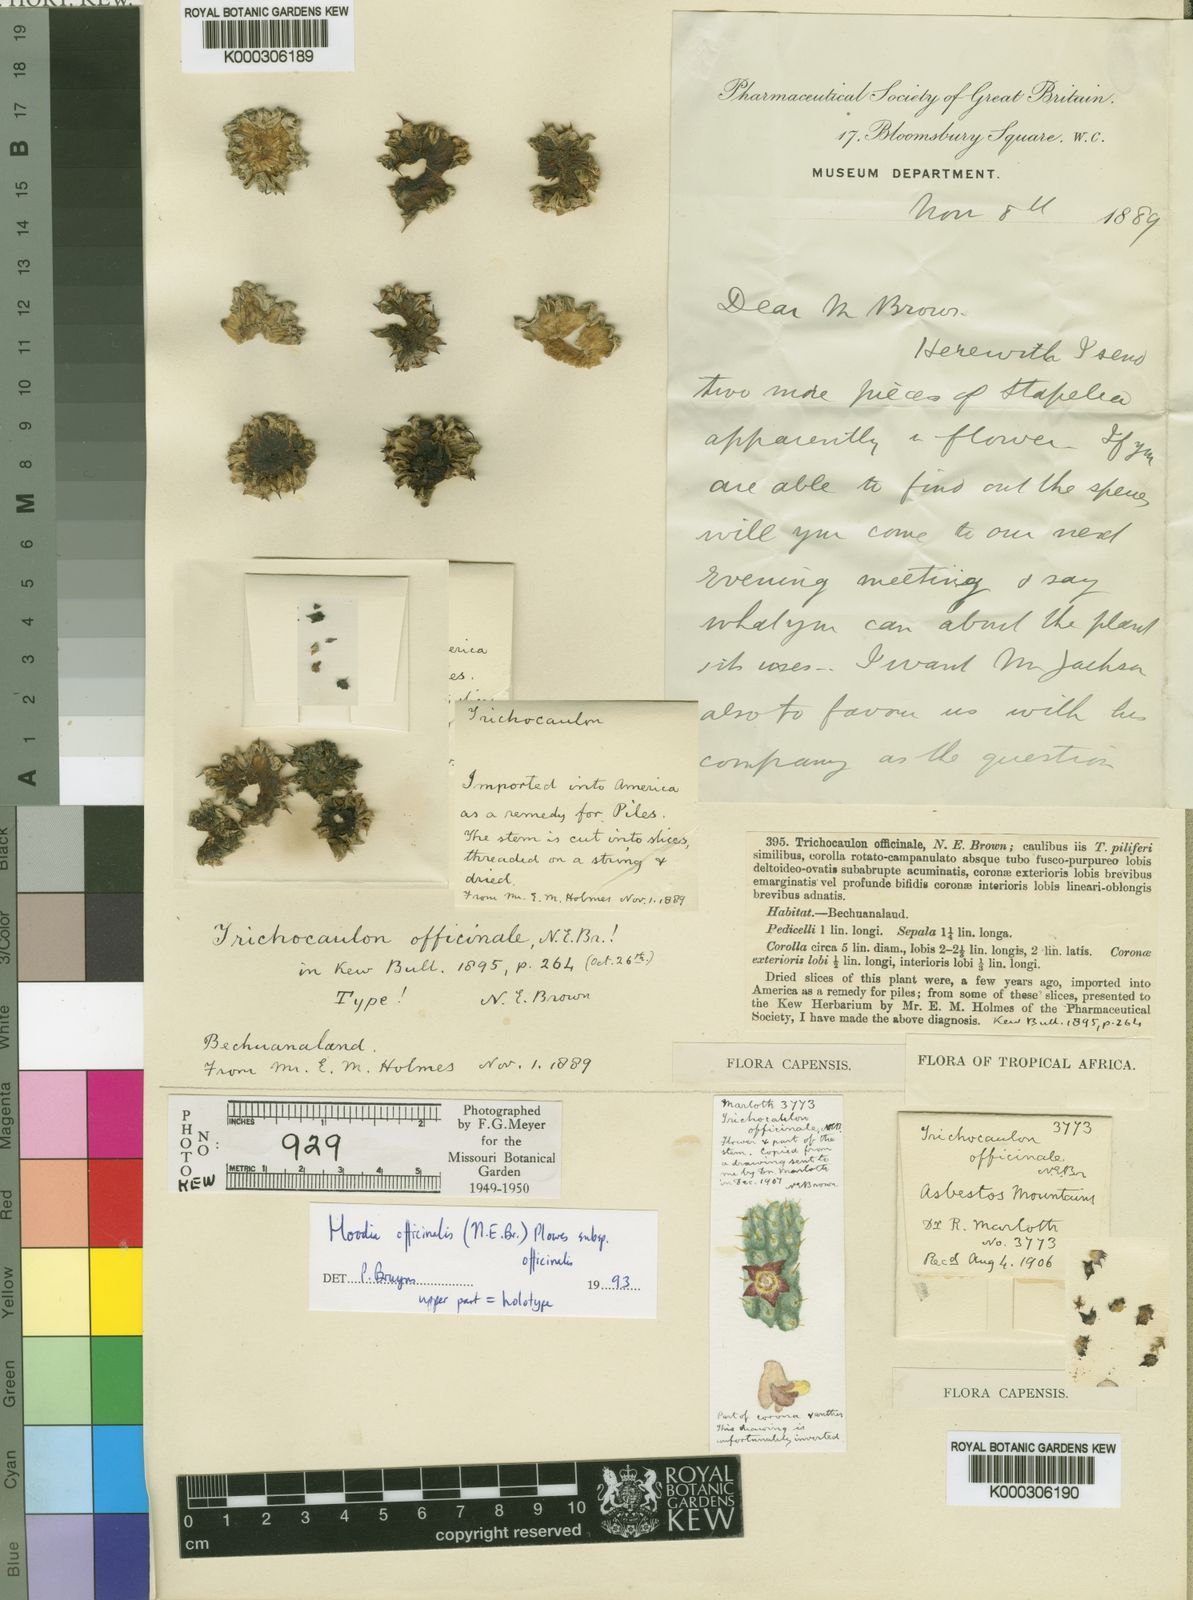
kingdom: Plantae
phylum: Tracheophyta
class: Magnoliopsida
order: Gentianales
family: Apocynaceae
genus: Ceropegia
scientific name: Ceropegia officinalis
